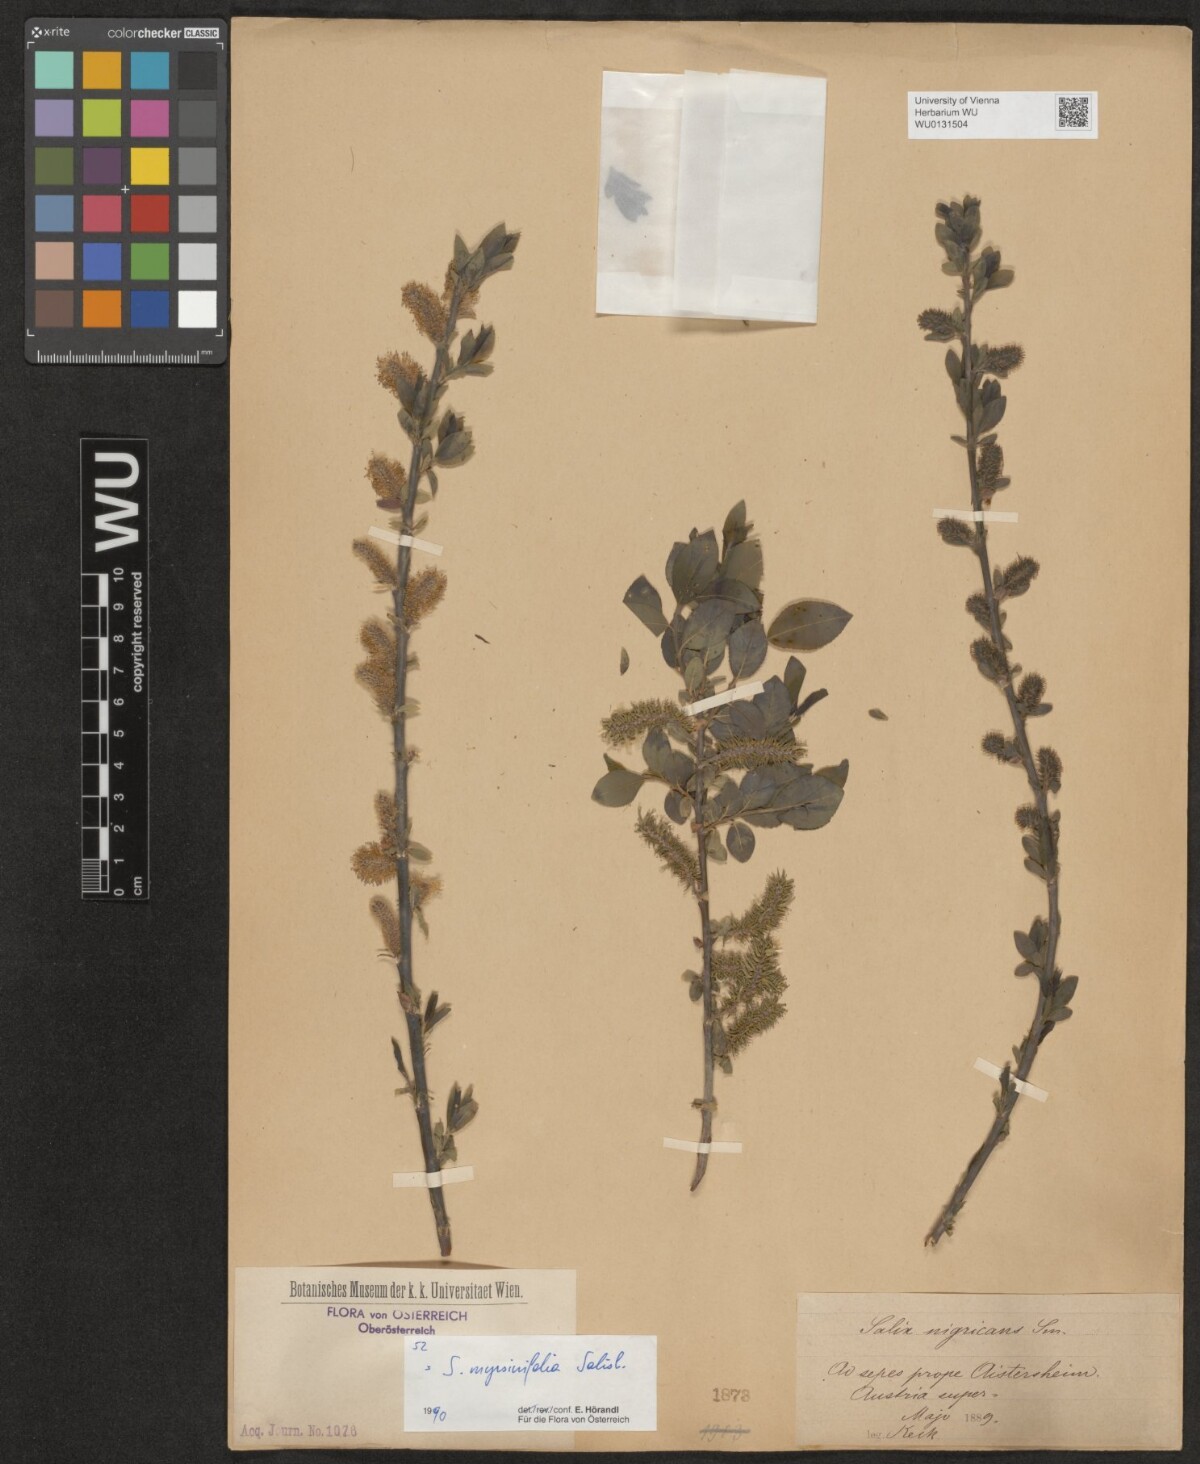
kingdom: Plantae
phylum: Tracheophyta
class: Magnoliopsida
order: Malpighiales
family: Salicaceae
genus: Salix
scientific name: Salix myrsinifolia
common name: Dark-leaved willow
